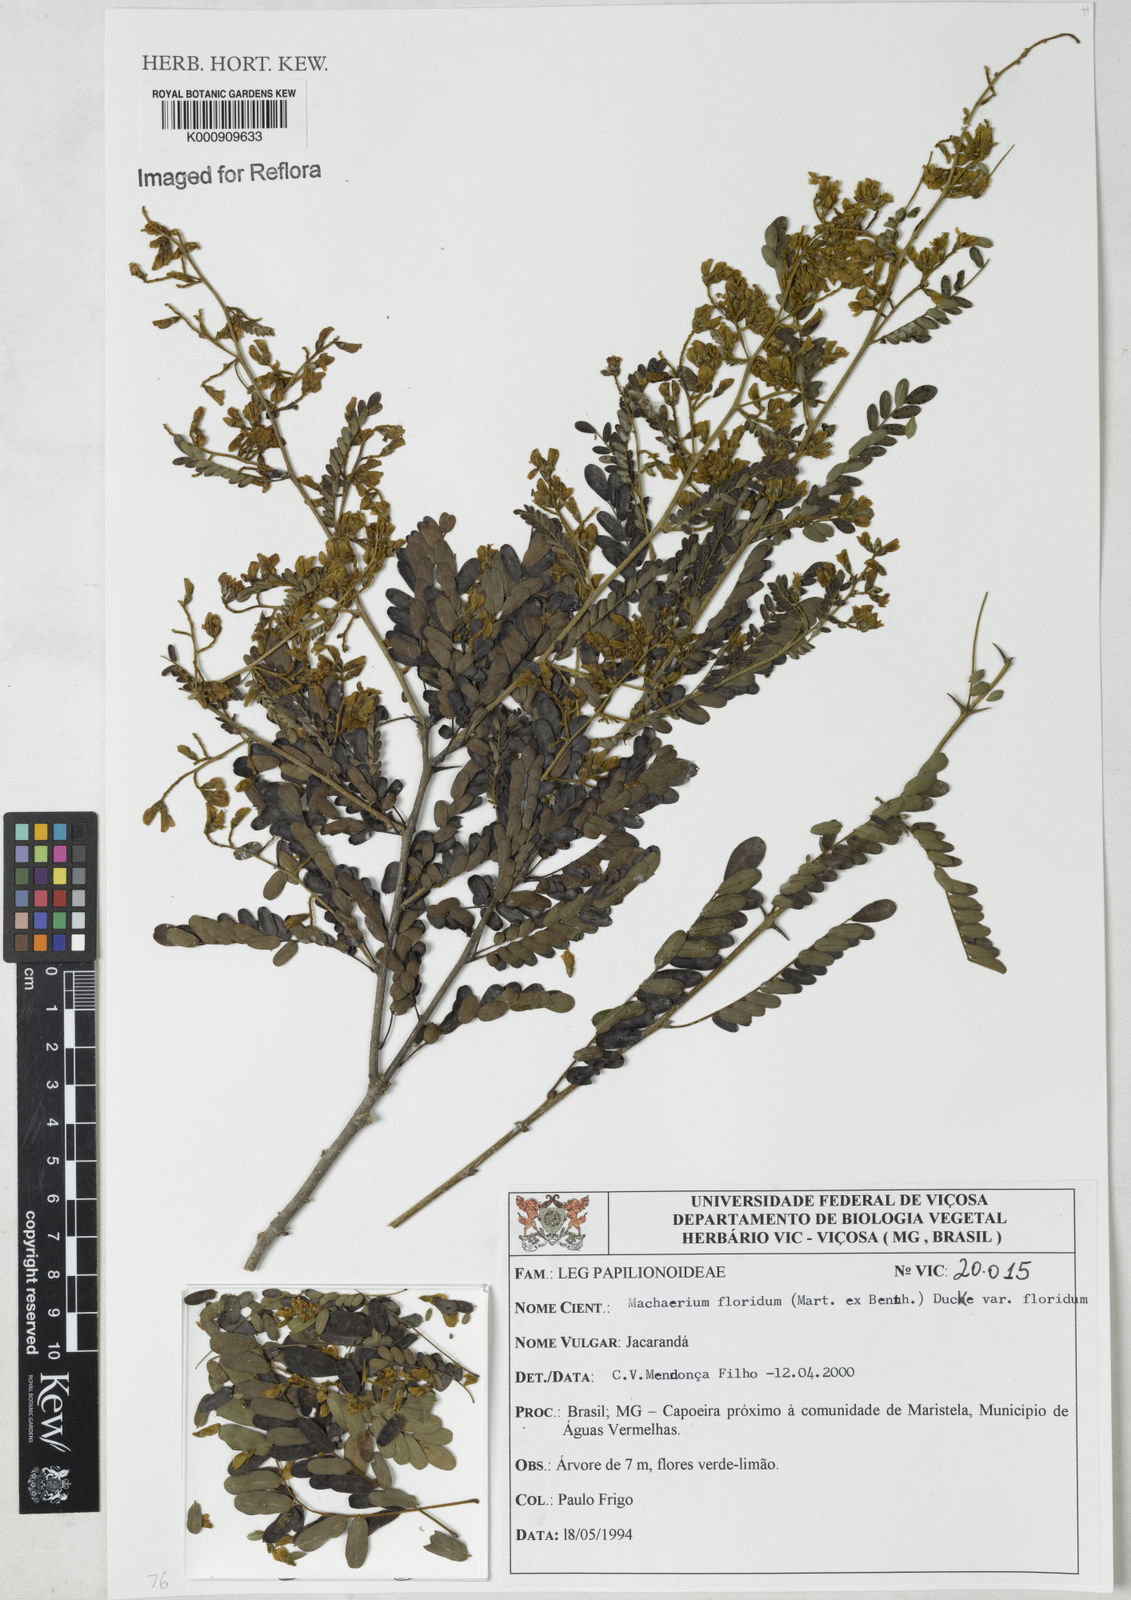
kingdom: Plantae
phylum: Tracheophyta
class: Magnoliopsida
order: Fabales
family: Fabaceae
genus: Machaerium
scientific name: Machaerium floridum
